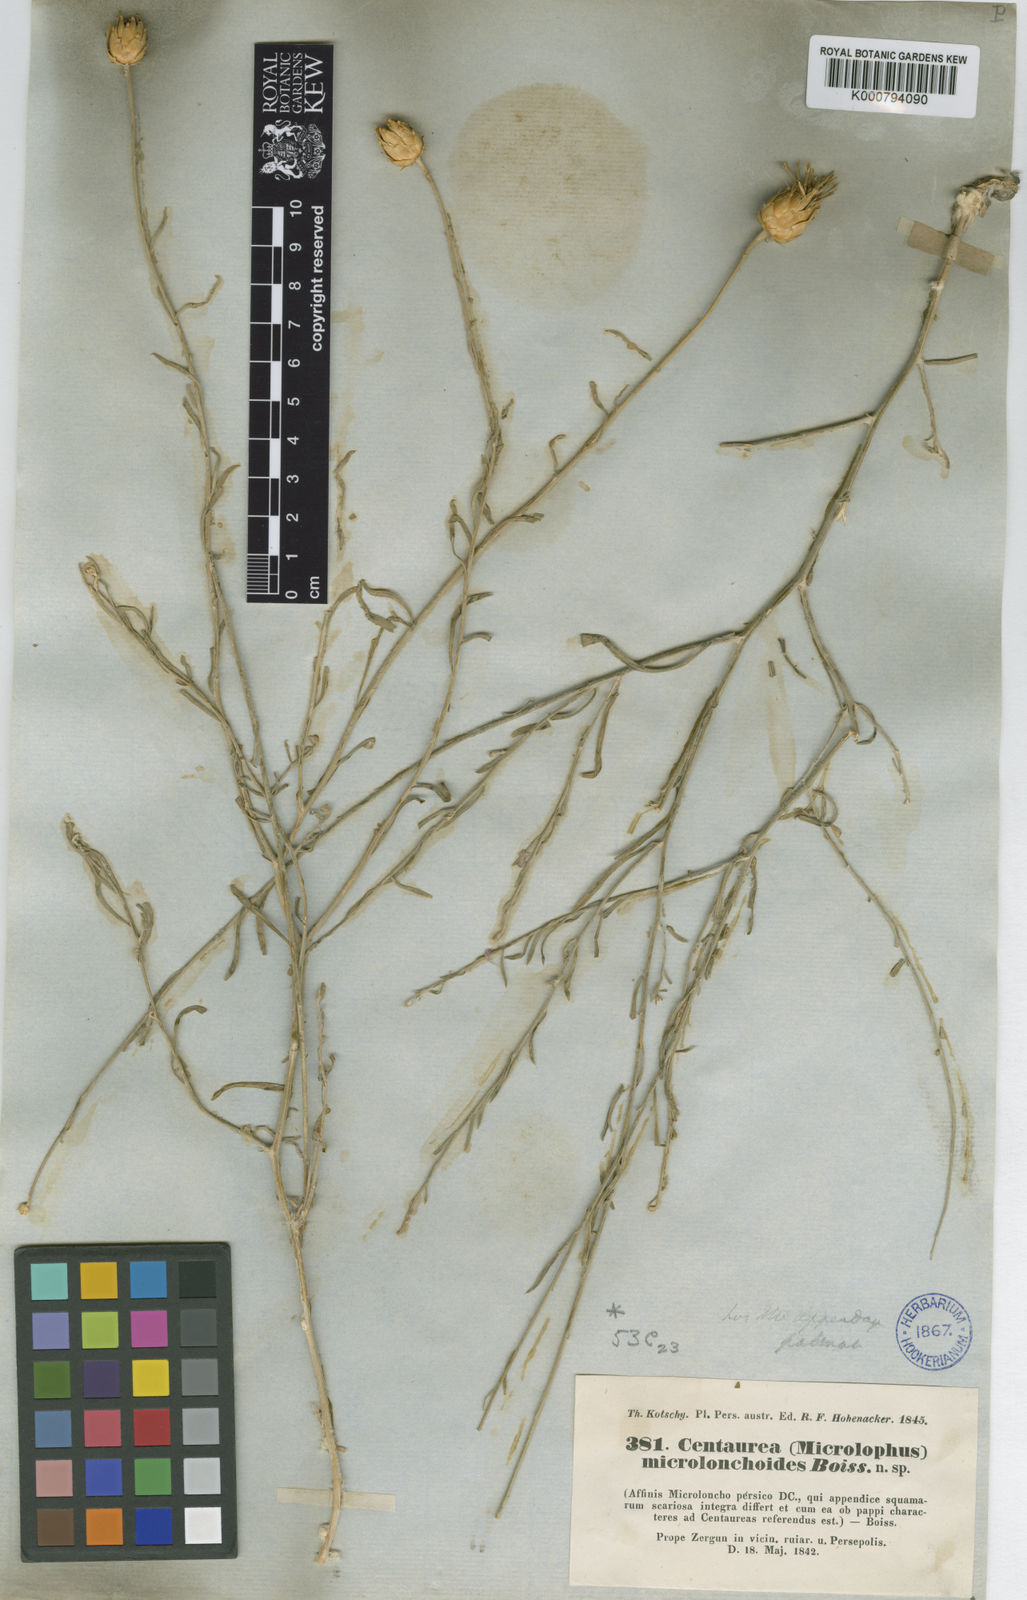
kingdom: Plantae
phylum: Tracheophyta
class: Magnoliopsida
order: Asterales
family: Asteraceae
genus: Centaurea
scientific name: Centaurea microlonchoides
